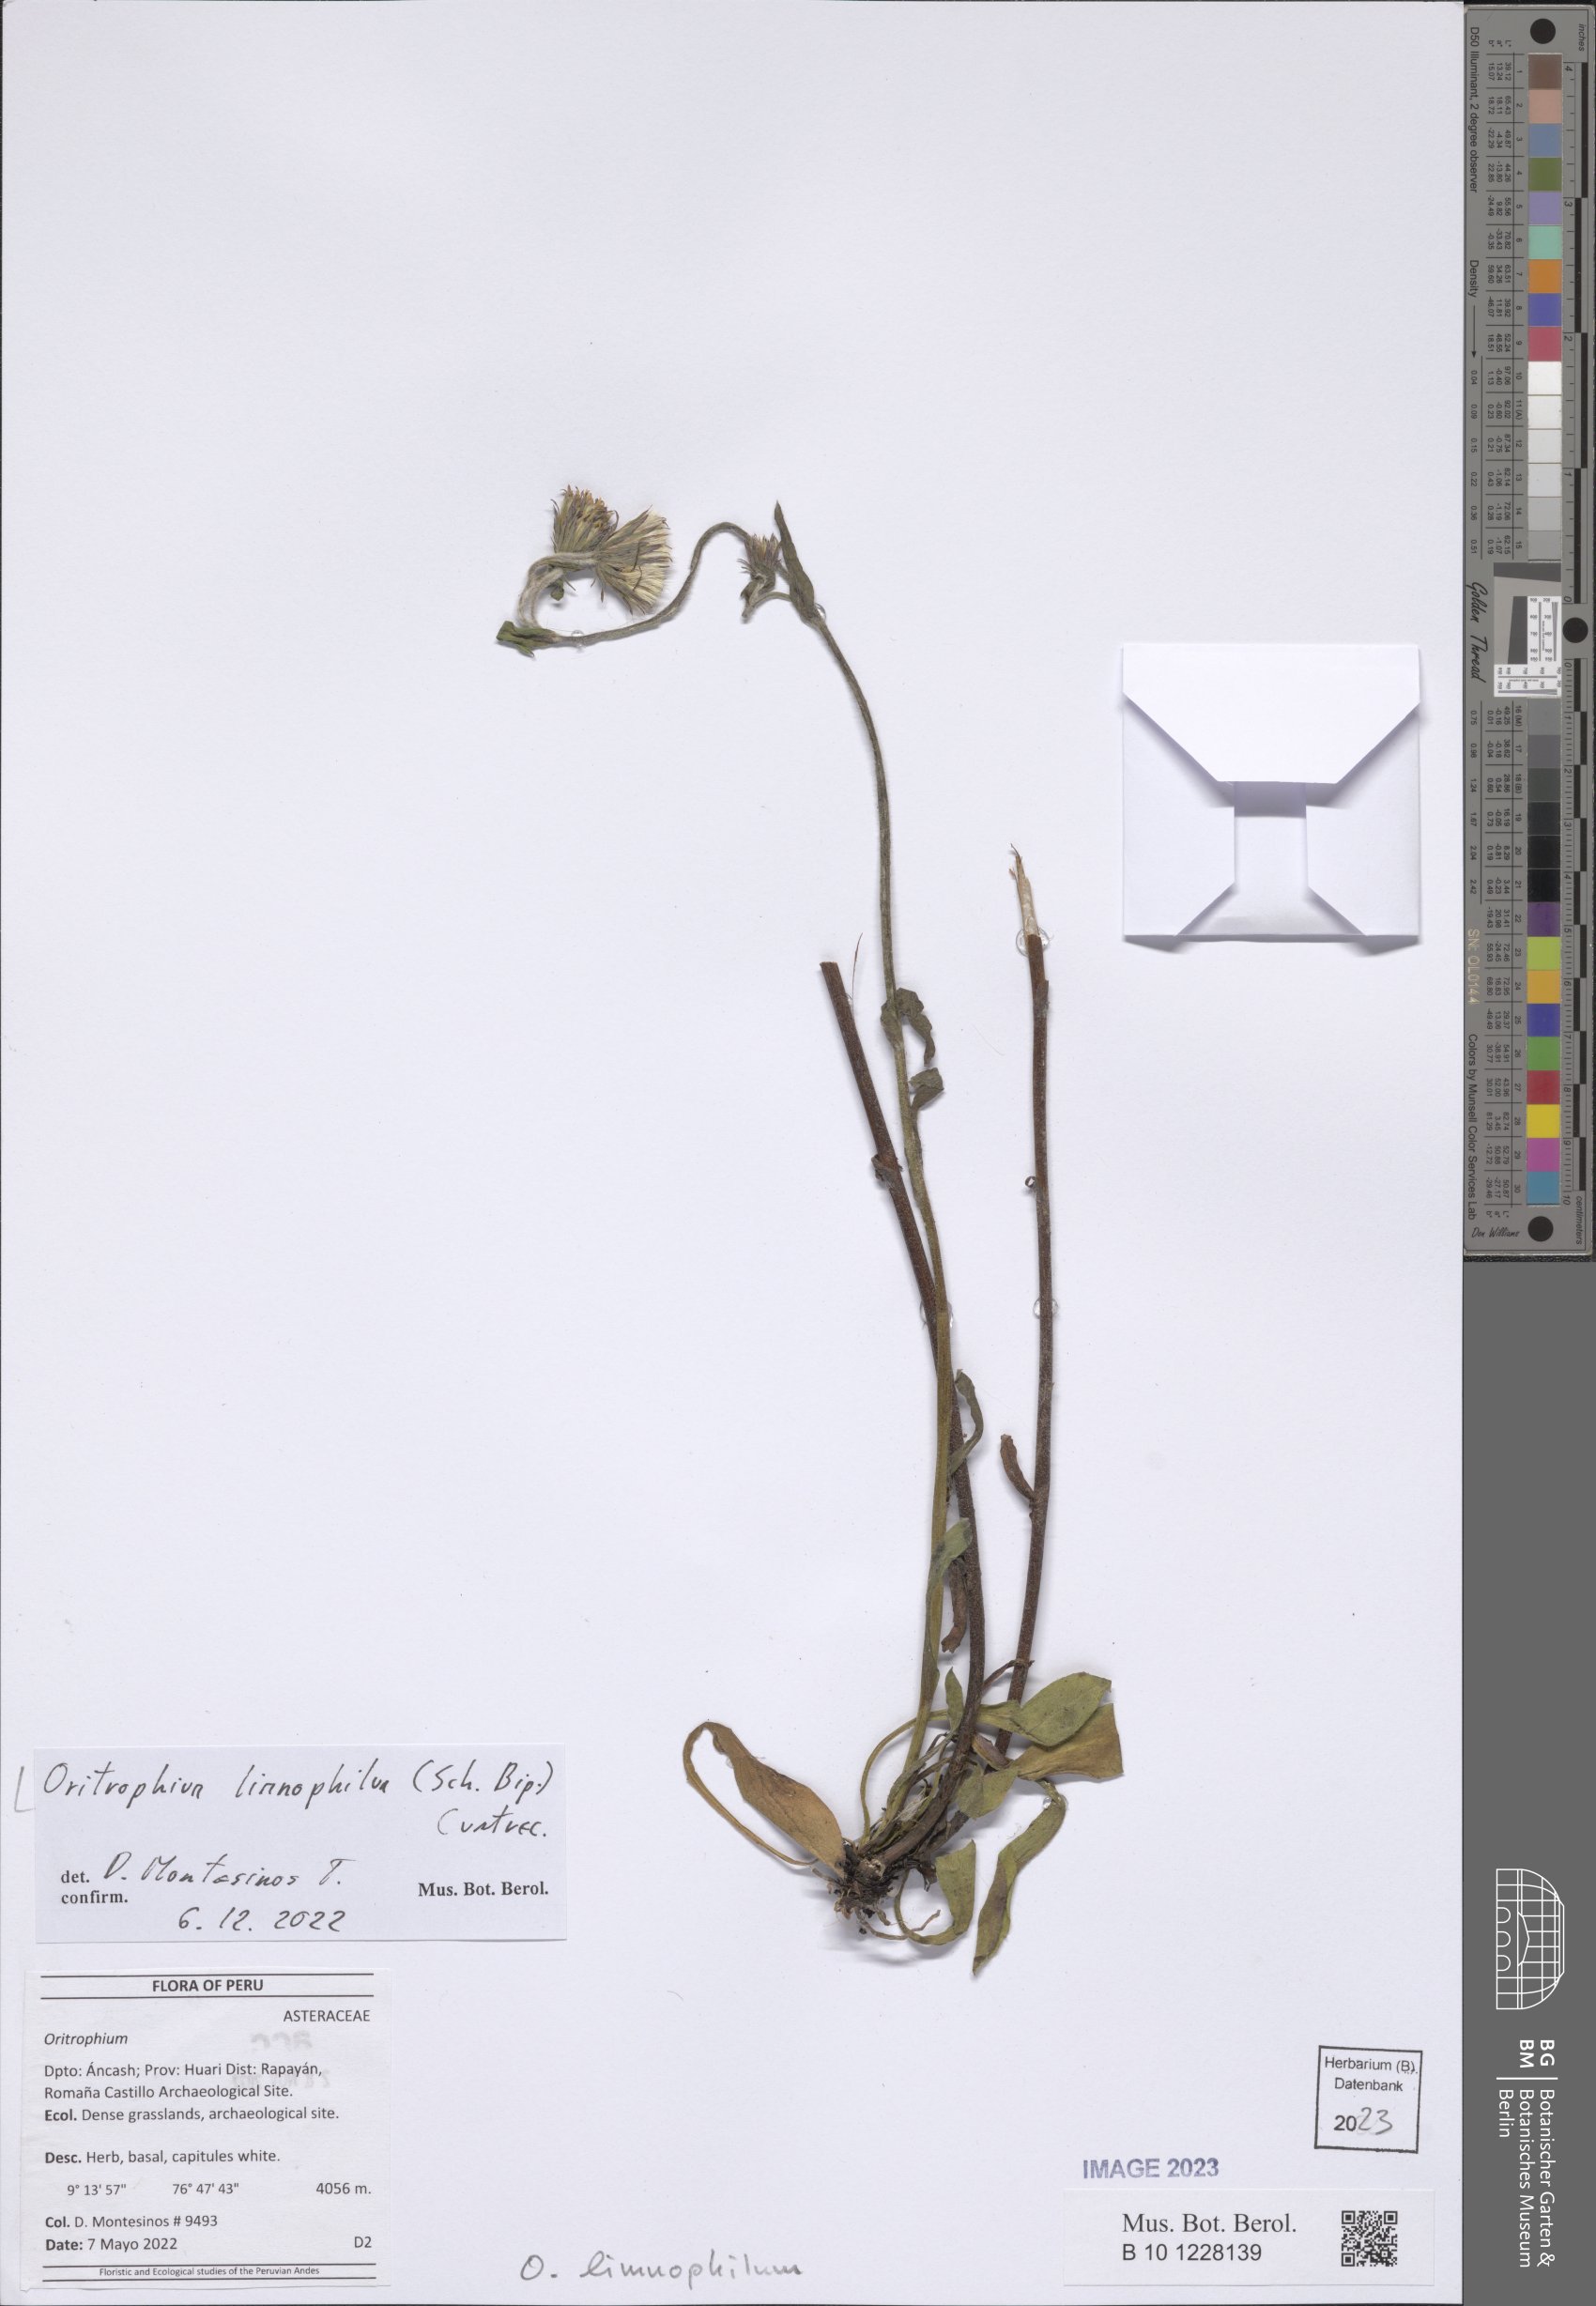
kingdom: Plantae
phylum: Tracheophyta
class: Magnoliopsida
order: Asterales
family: Asteraceae
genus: Oritrophium
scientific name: Oritrophium limnophilum
